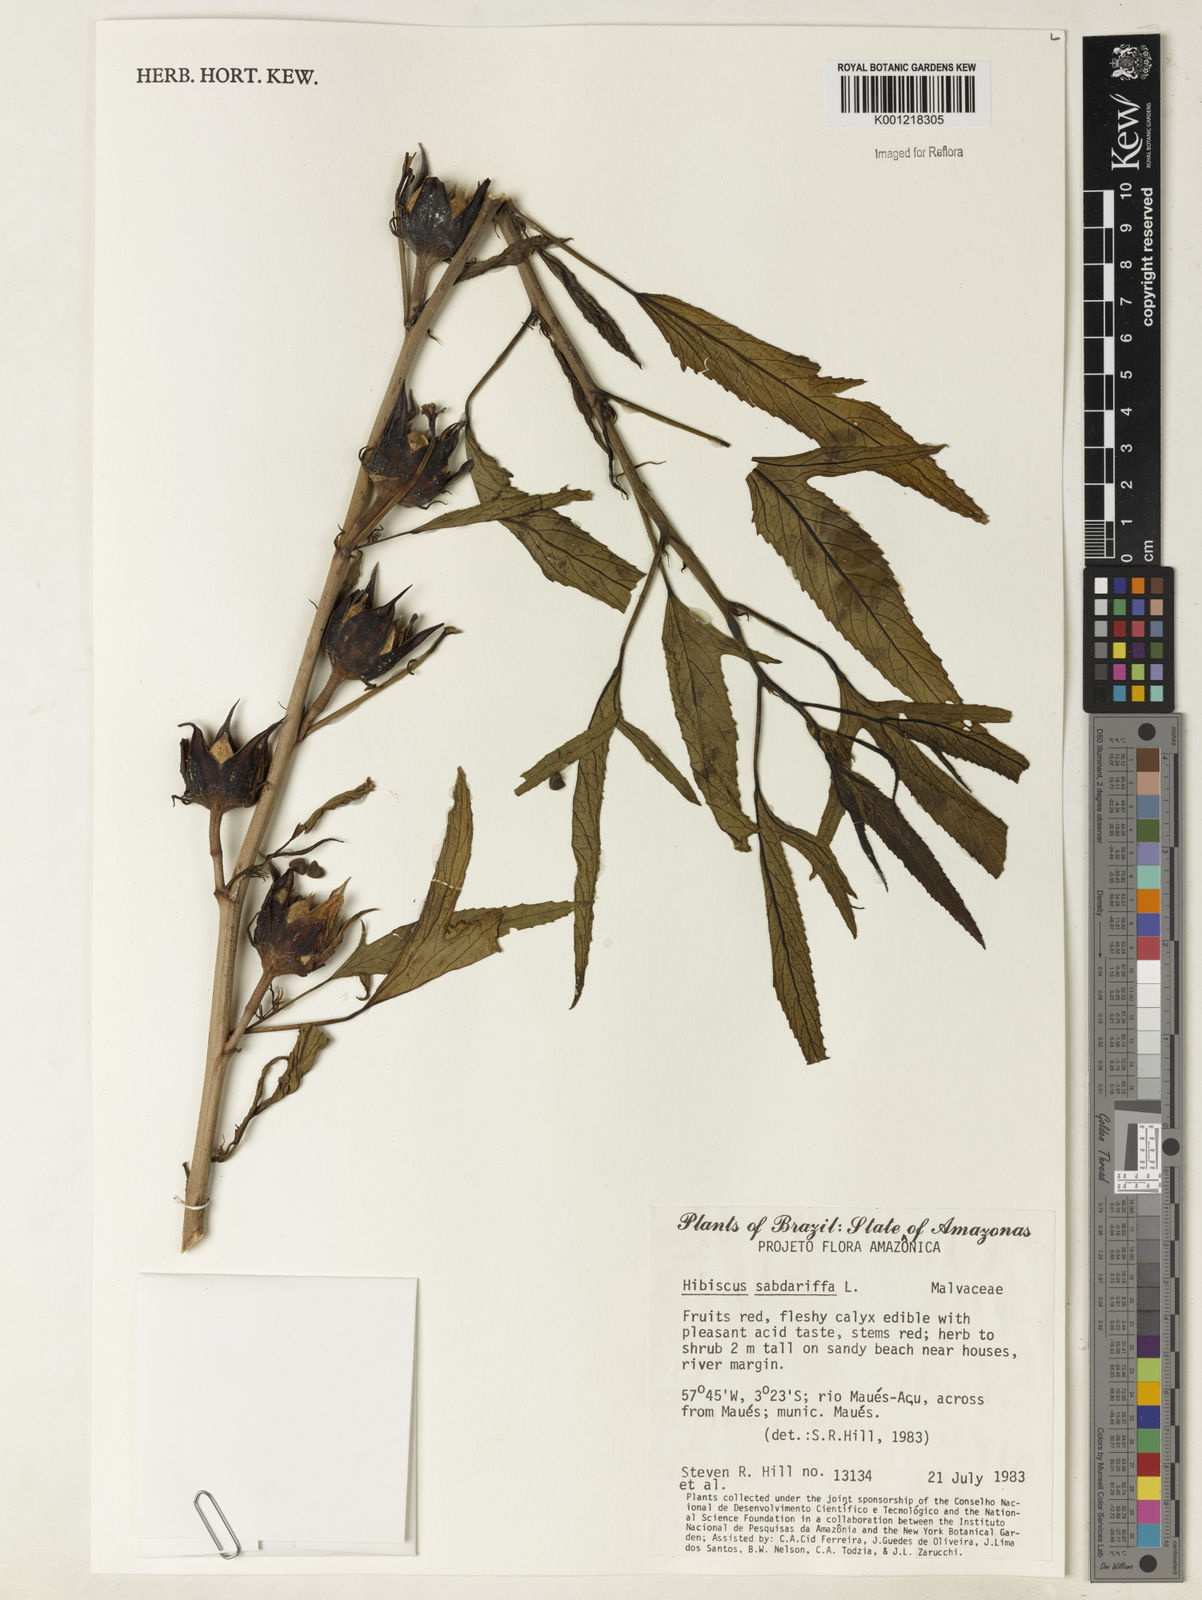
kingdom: Plantae
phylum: Tracheophyta
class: Magnoliopsida
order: Malvales
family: Malvaceae
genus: Hibiscus
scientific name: Hibiscus sabdariffa
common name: Roselle
